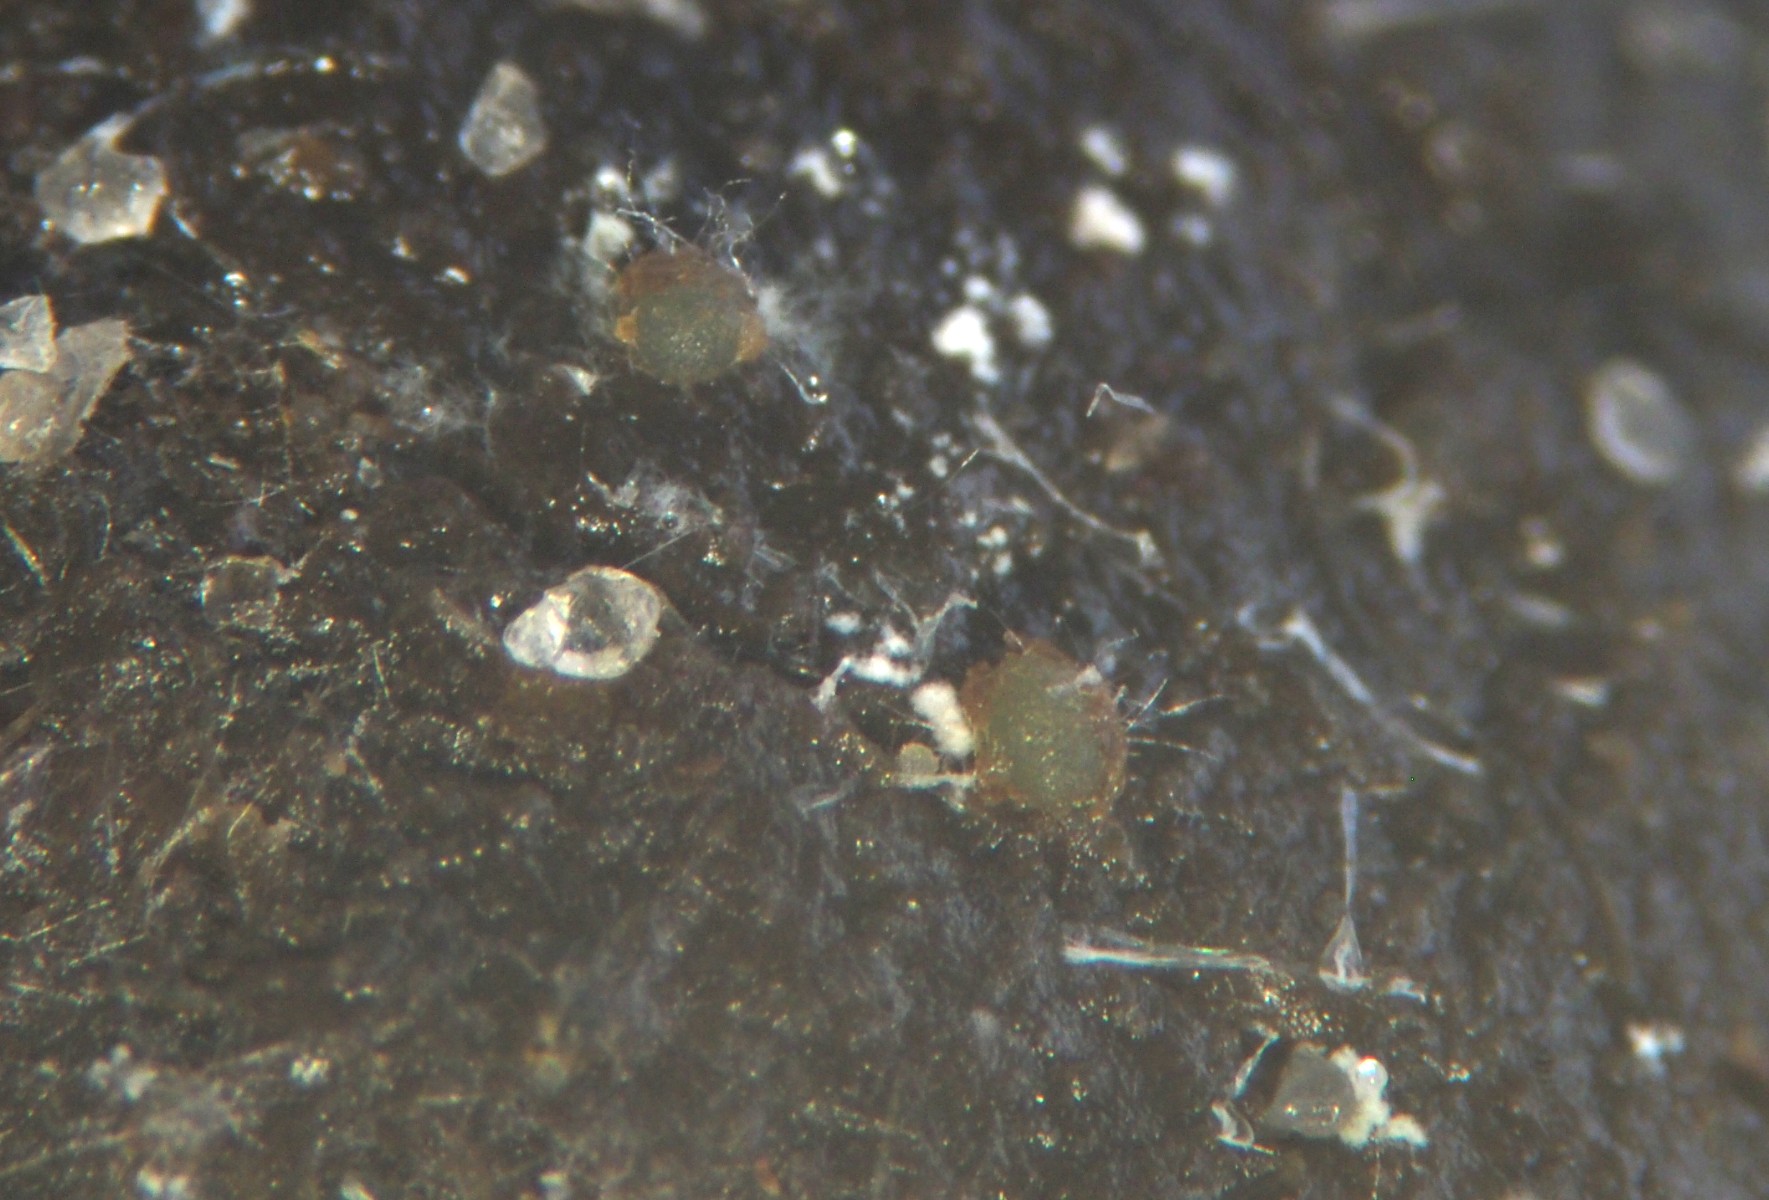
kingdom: Fungi
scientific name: Fungi
